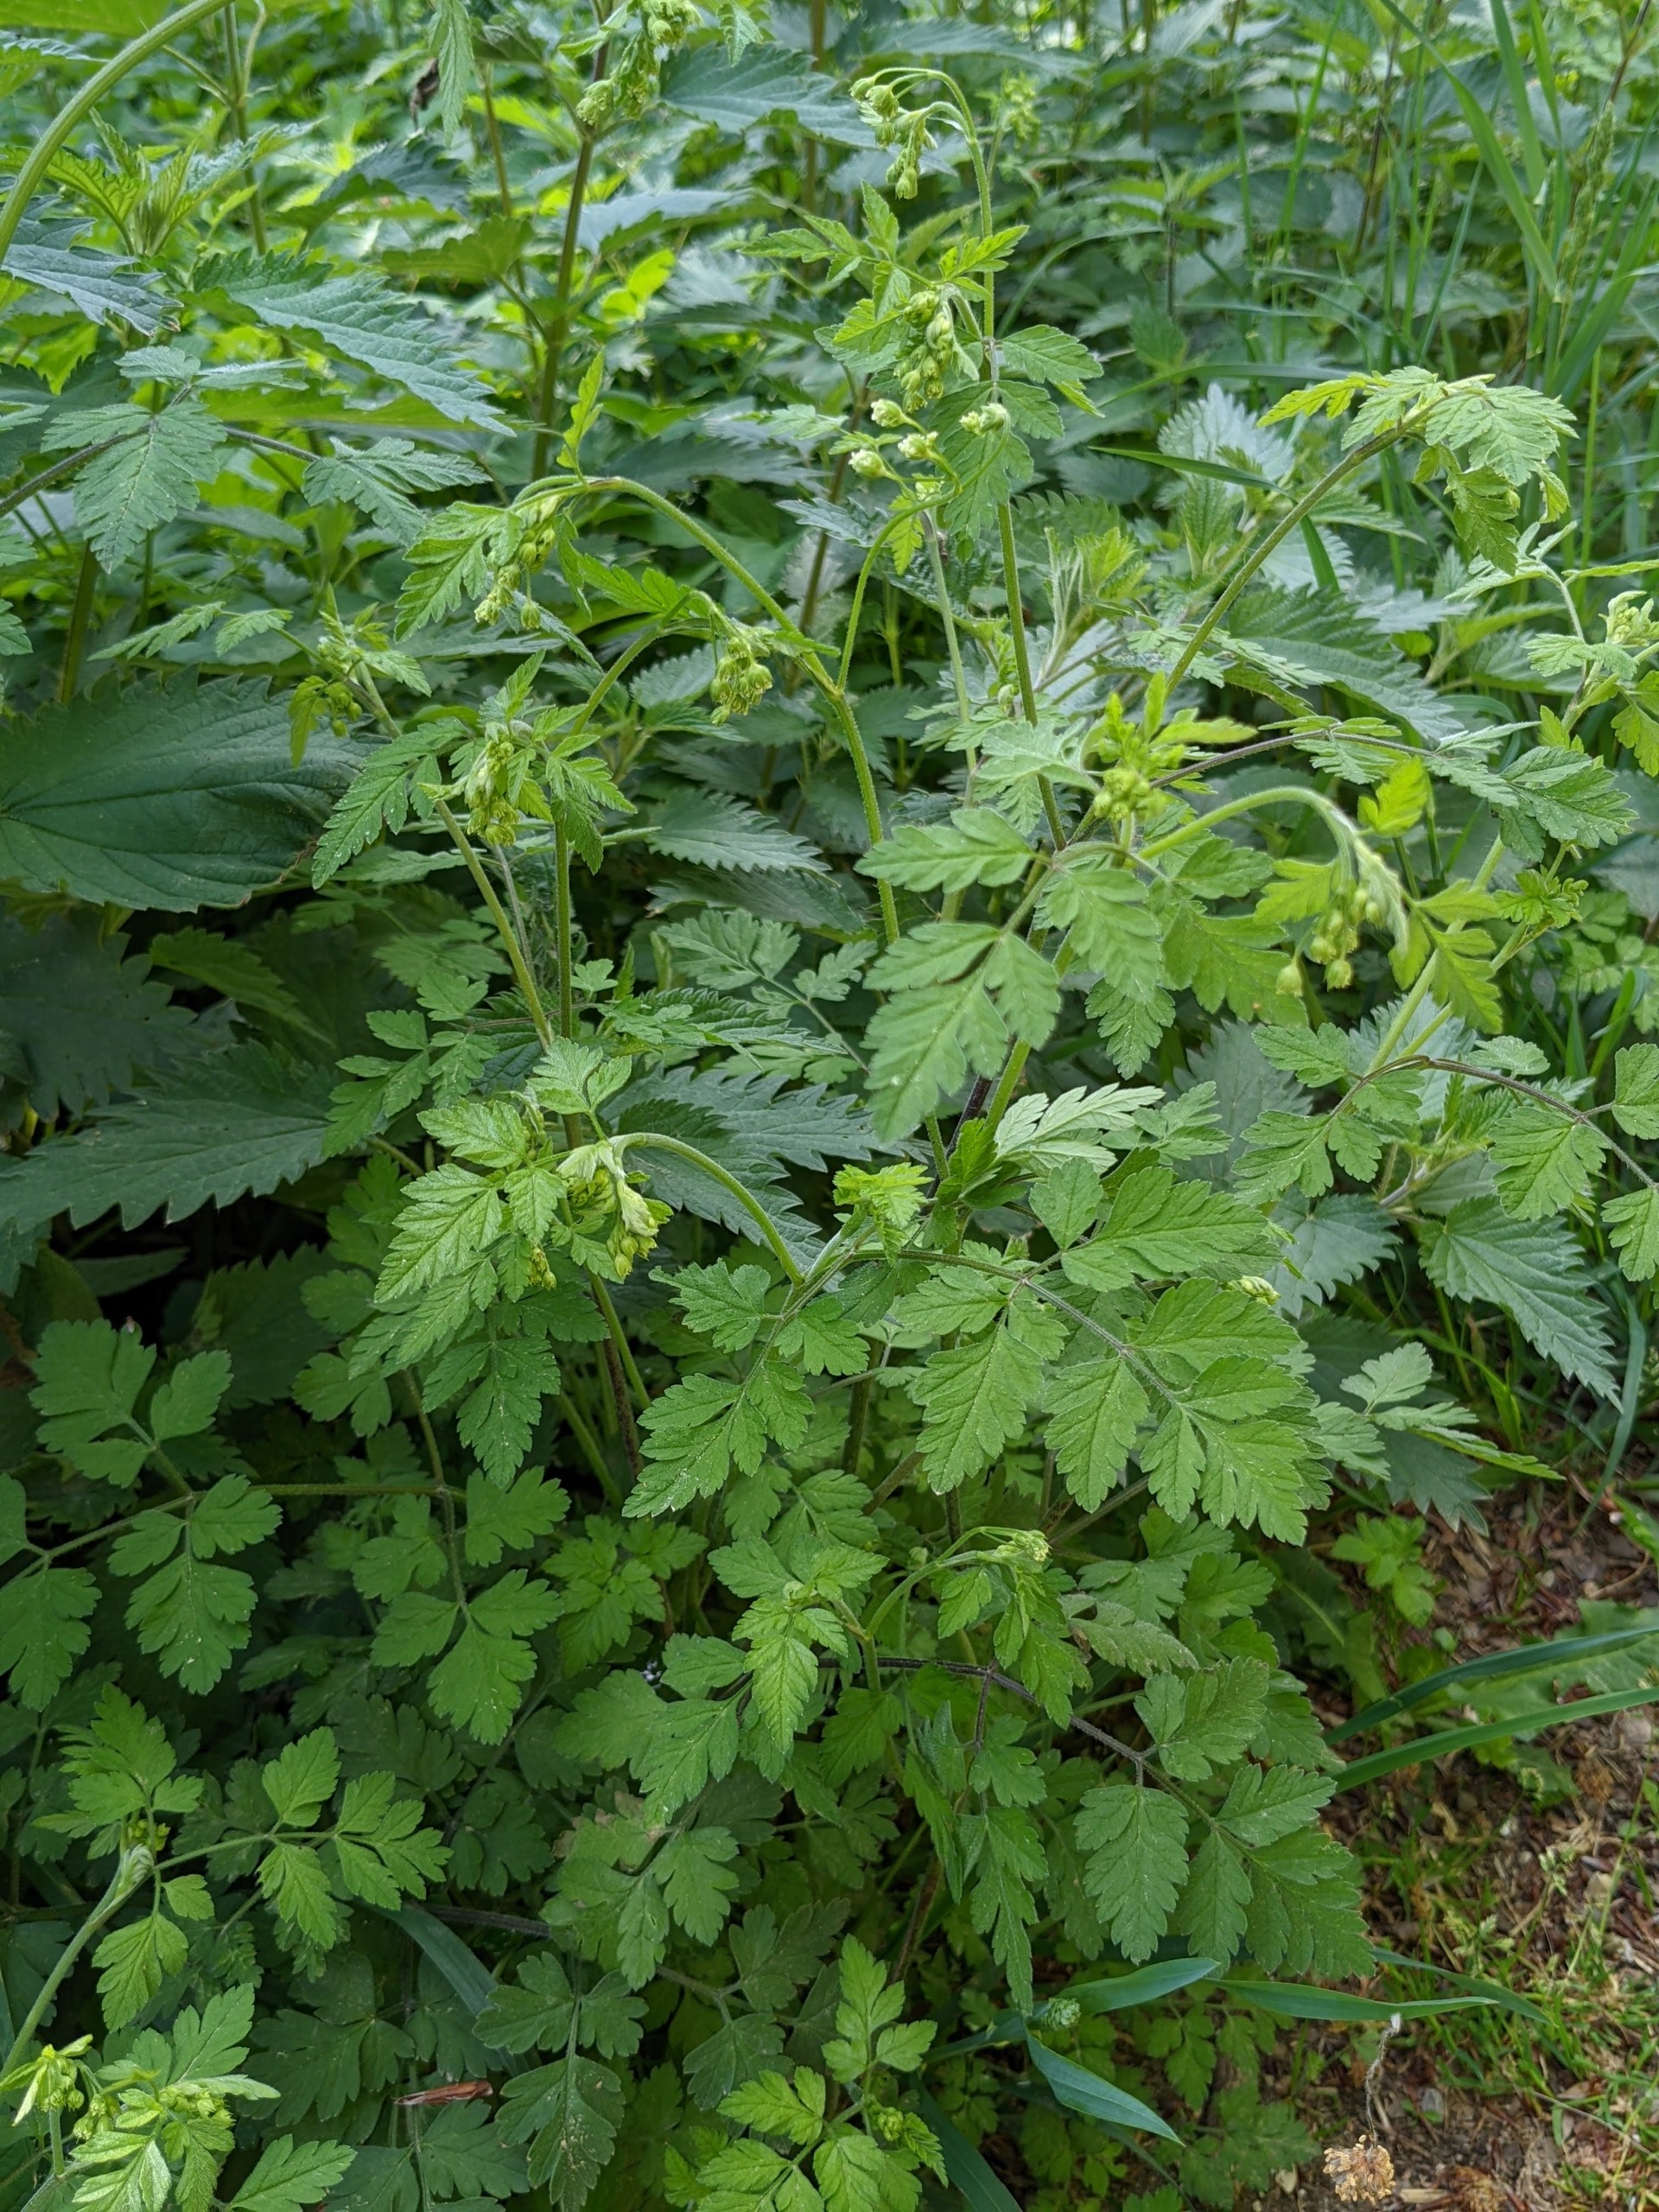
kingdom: Plantae
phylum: Tracheophyta
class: Magnoliopsida
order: Apiales
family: Apiaceae
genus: Chaerophyllum
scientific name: Chaerophyllum temulum
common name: Almindelig hulsvøb
